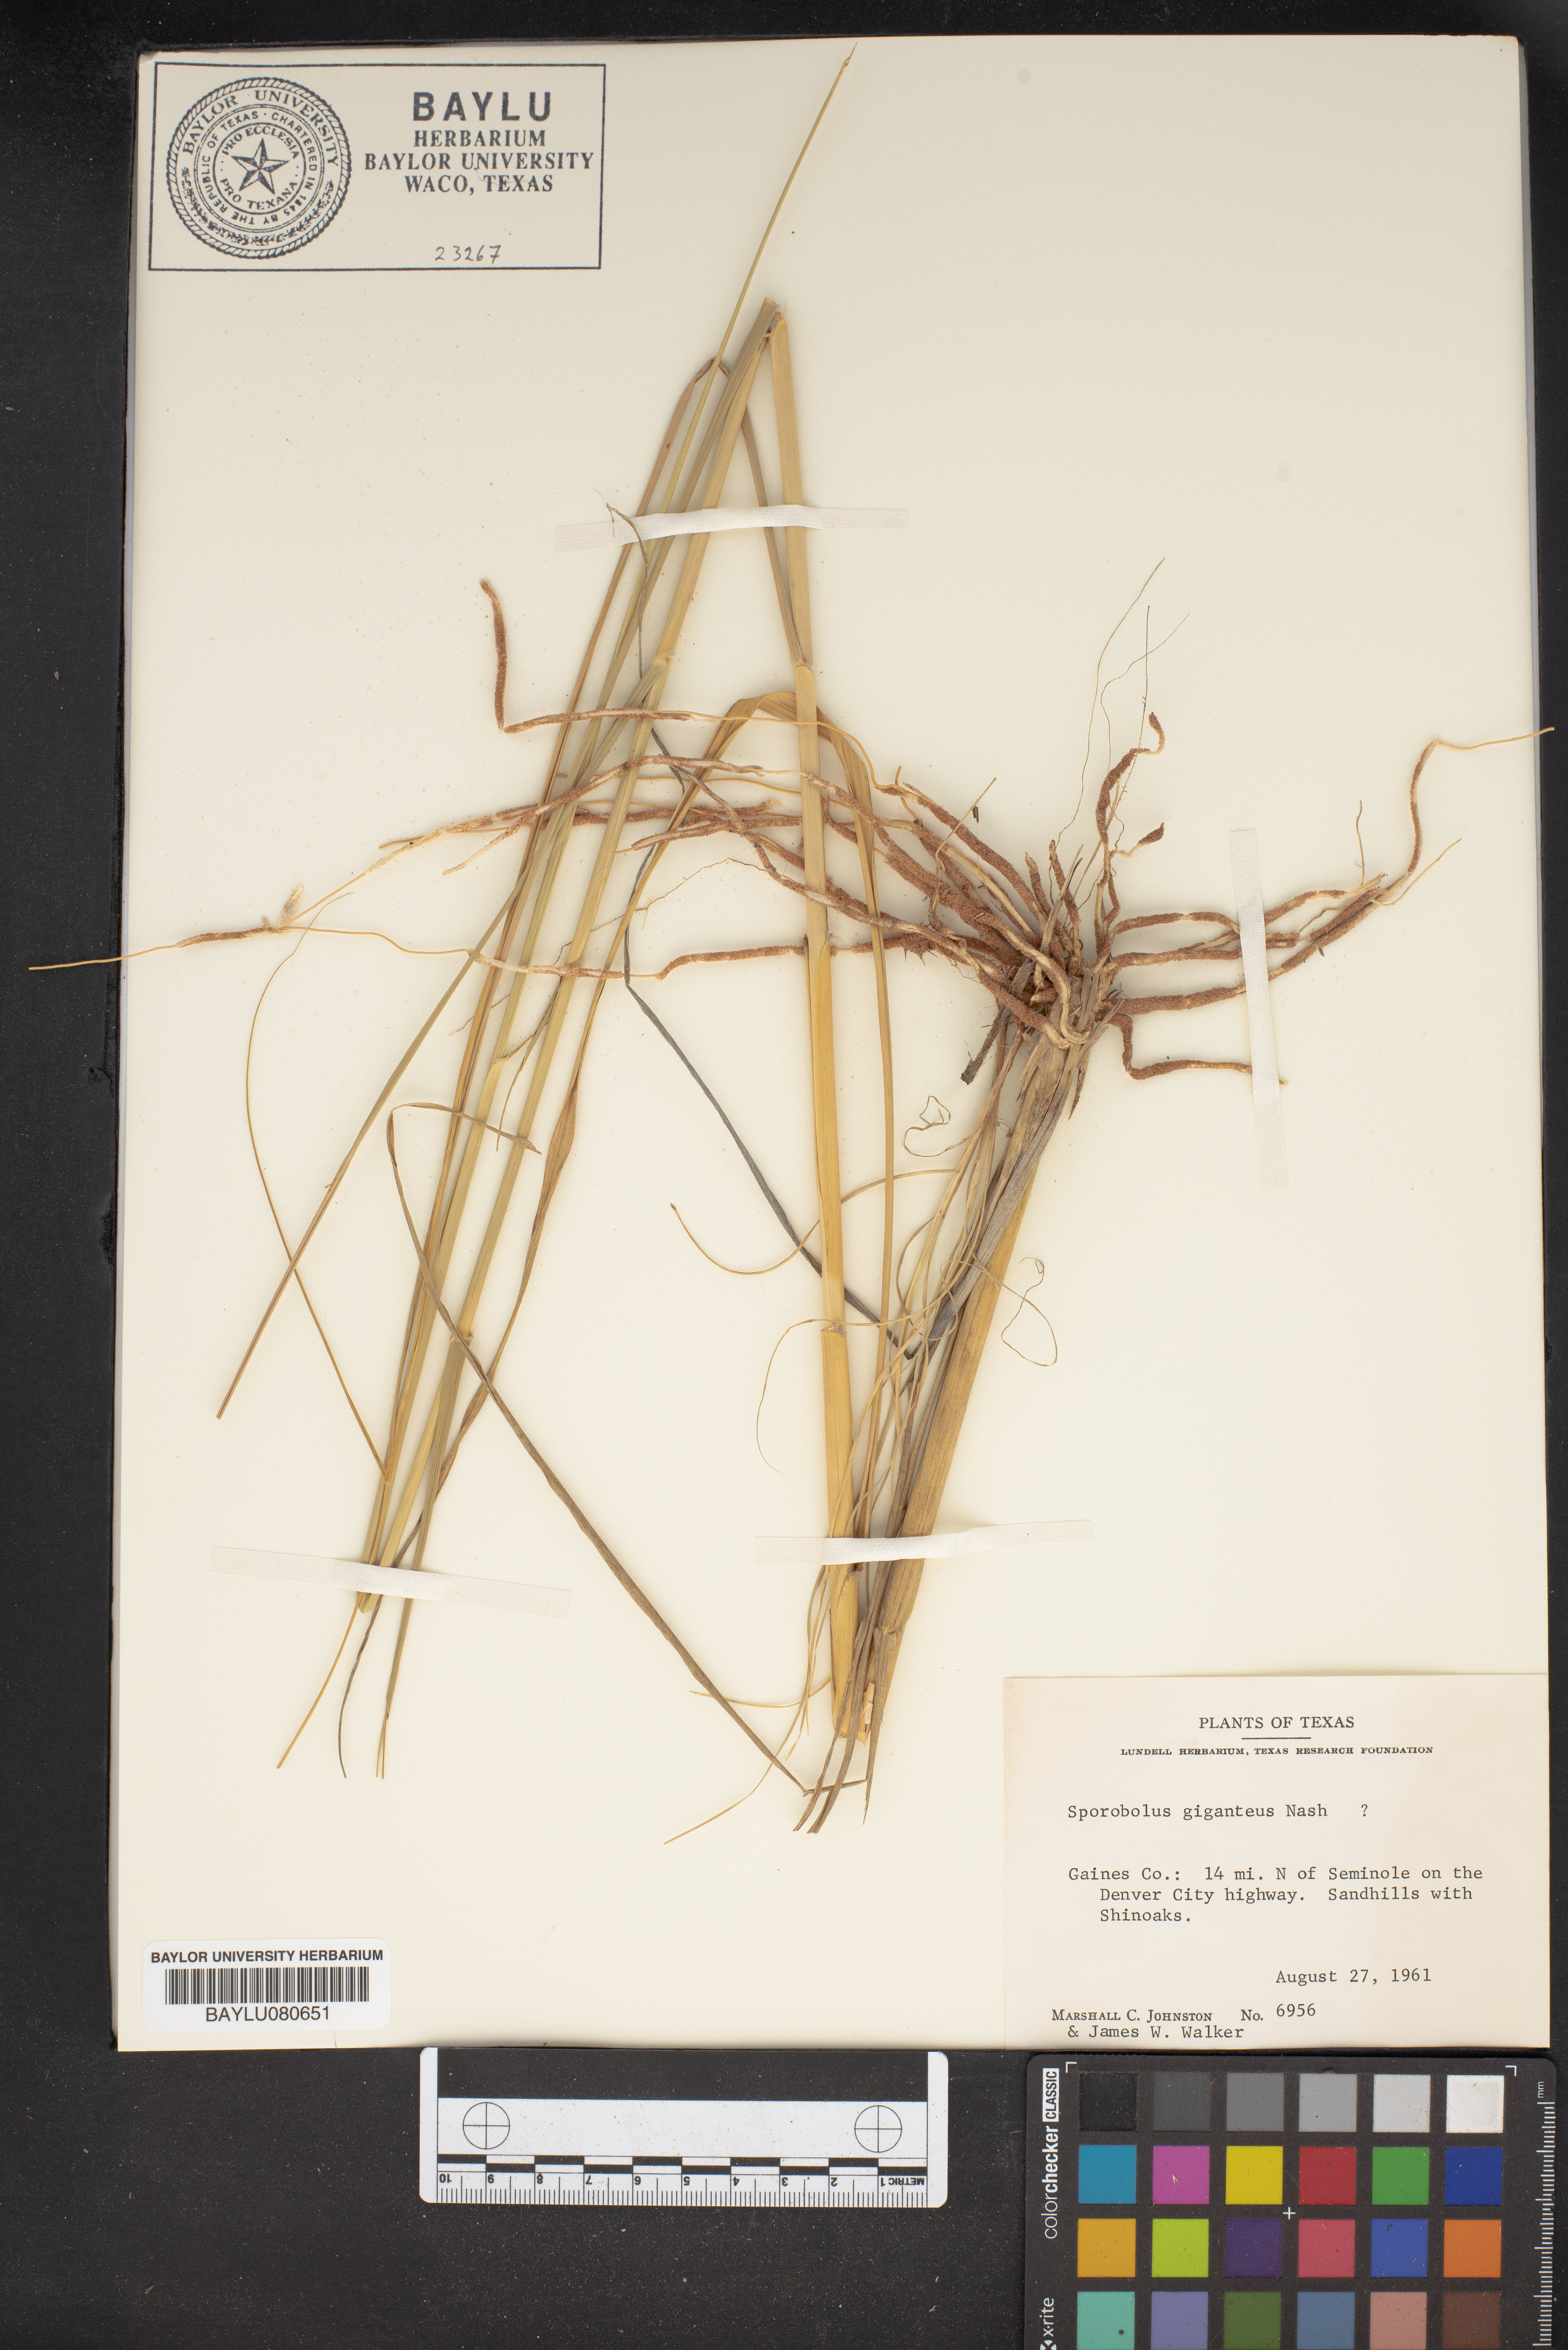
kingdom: Plantae
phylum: Tracheophyta
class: Liliopsida
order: Poales
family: Poaceae
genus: Sporobolus
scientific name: Sporobolus giganteus
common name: Giant dropseed
